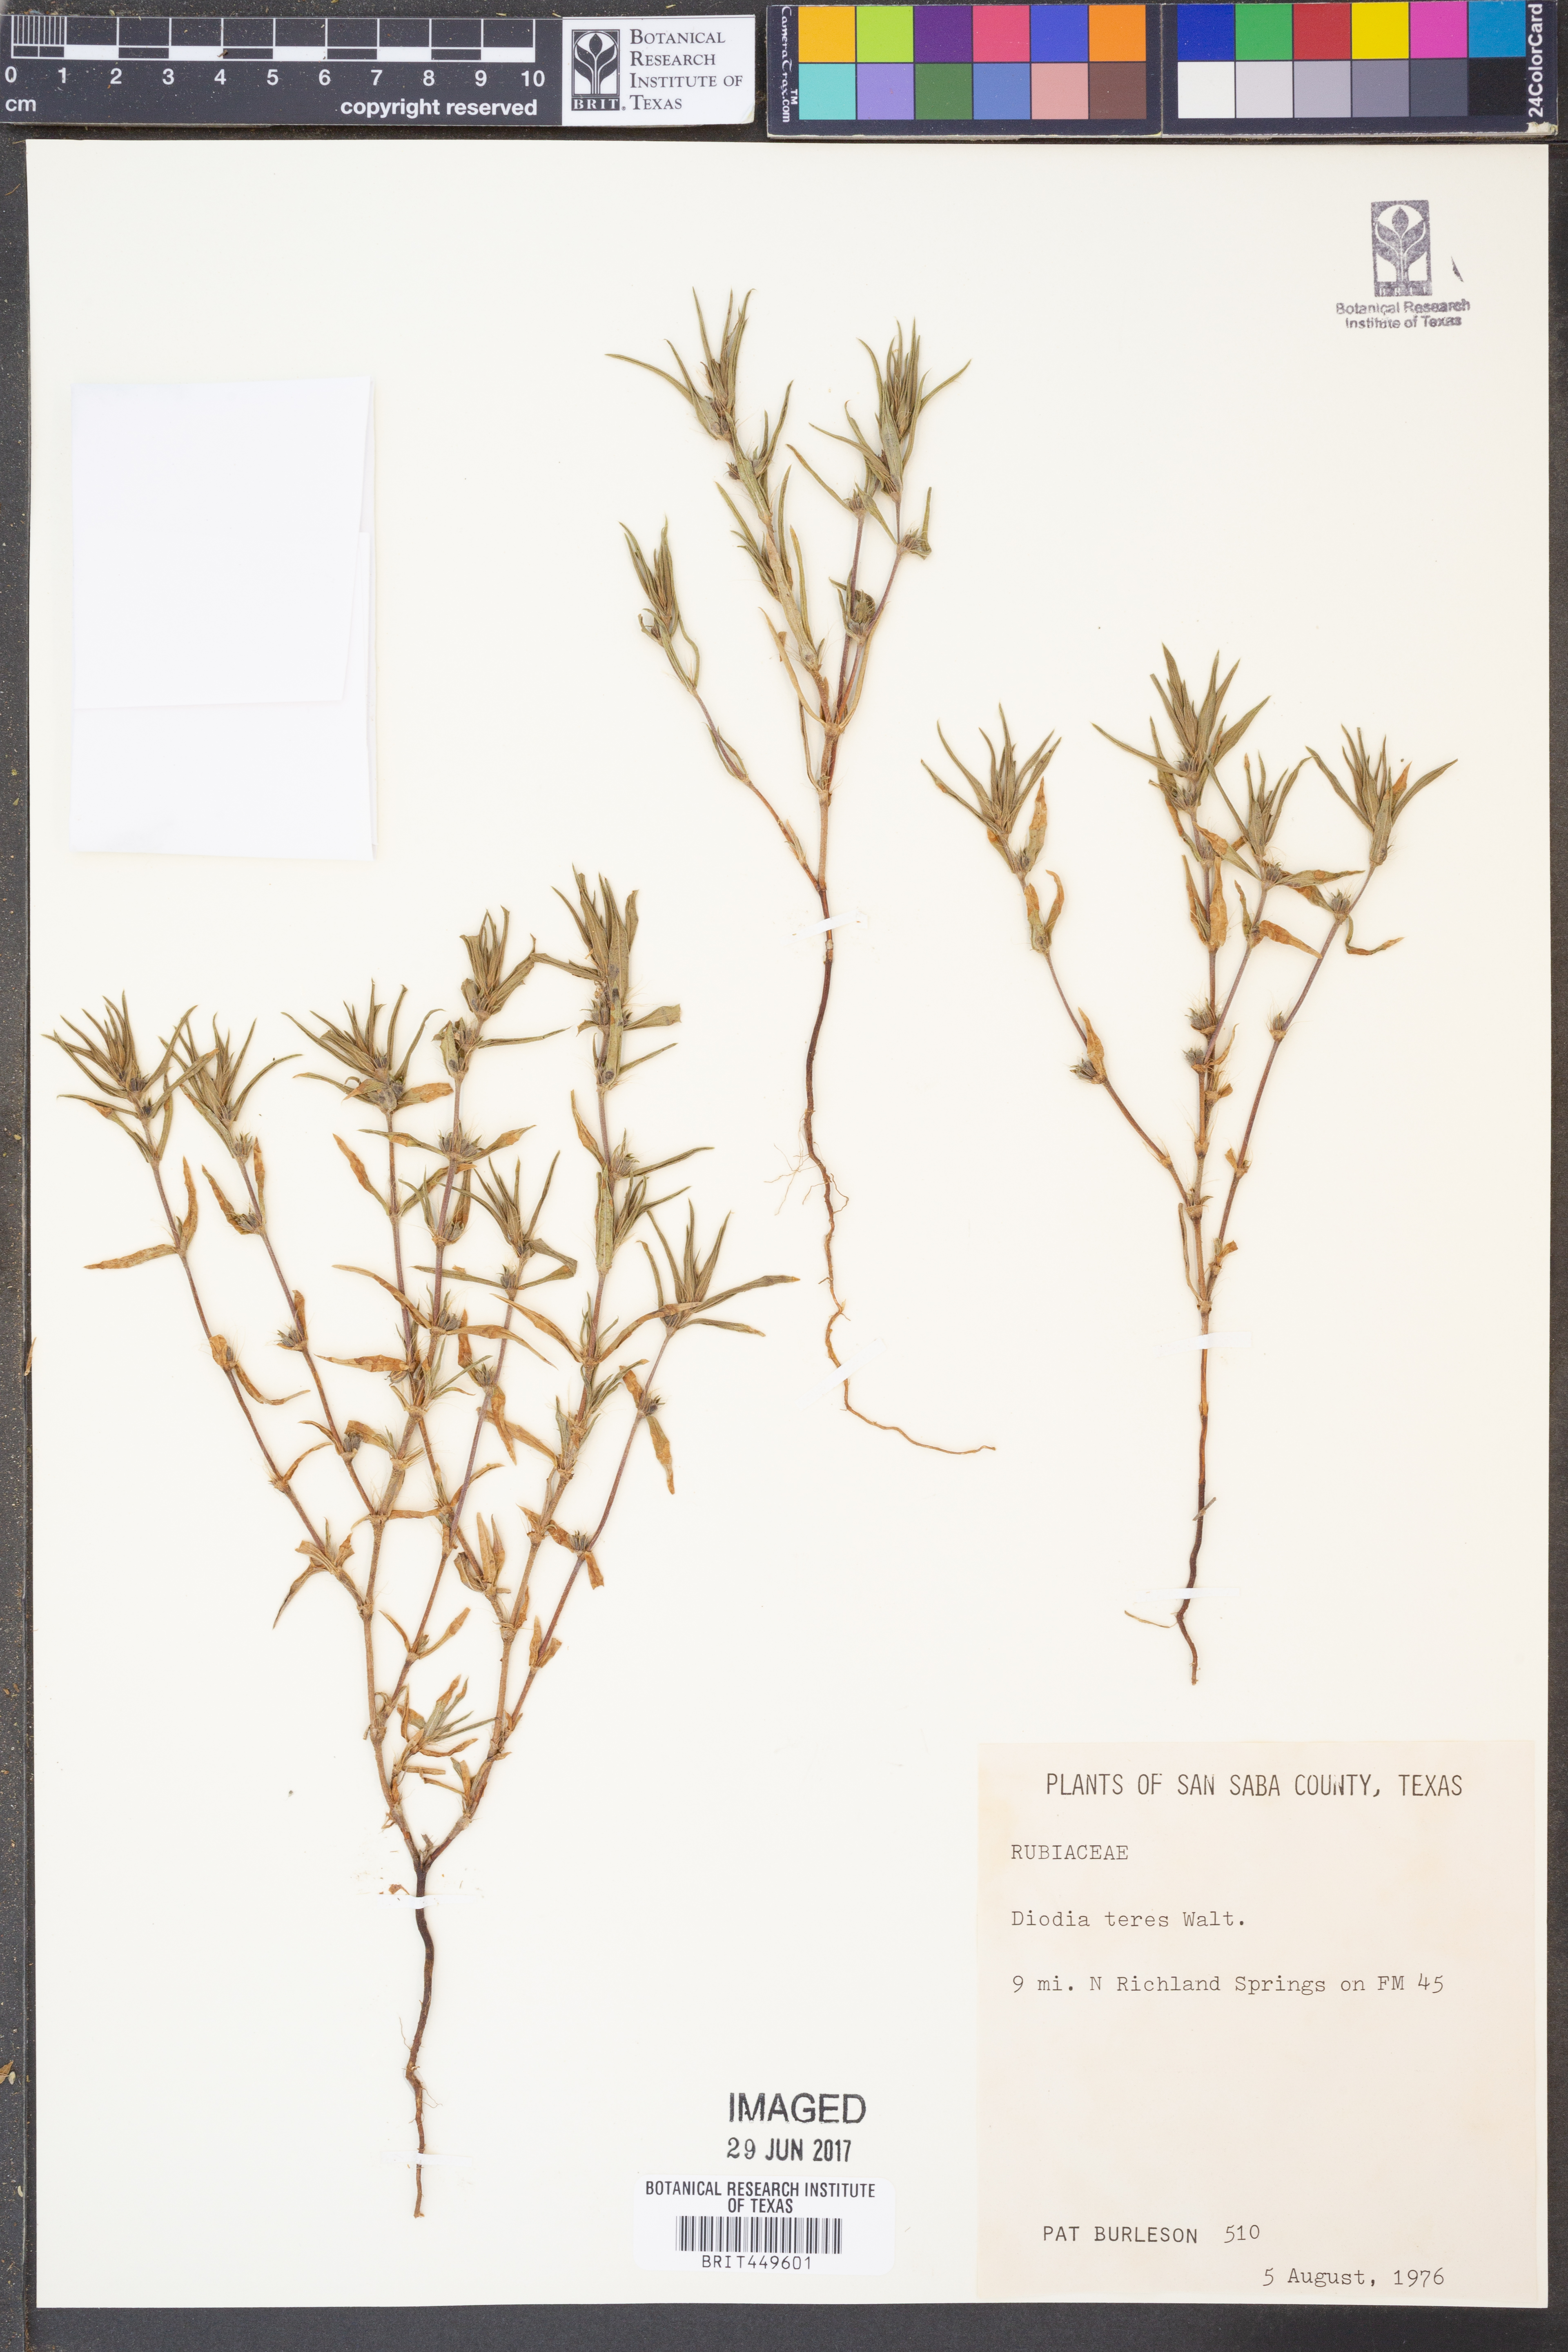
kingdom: Plantae
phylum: Tracheophyta
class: Magnoliopsida
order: Gentianales
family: Rubiaceae
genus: Hexasepalum
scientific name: Hexasepalum teres
